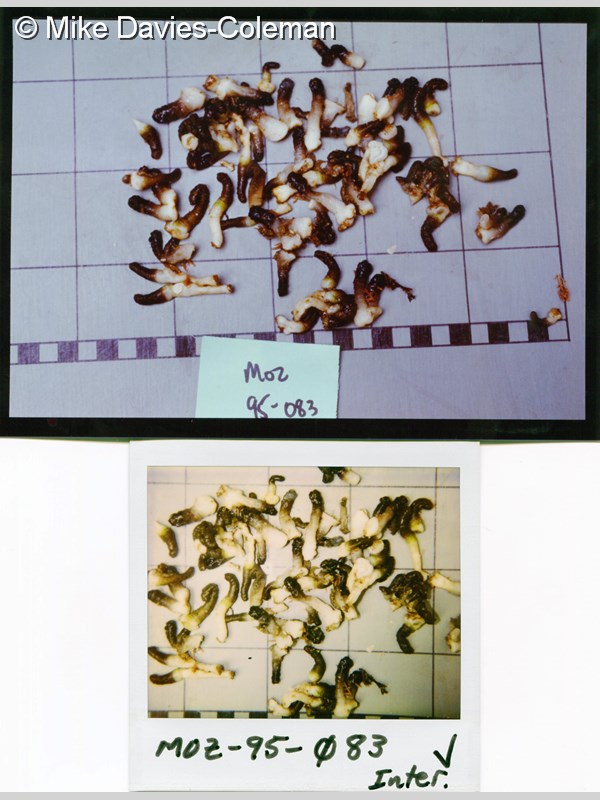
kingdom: Animalia
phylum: Cnidaria
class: Anthozoa
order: Zoantharia
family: Zoanthidae
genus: Isaurus
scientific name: Isaurus tuberculatus
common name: Duchassaing's colonial anemone
